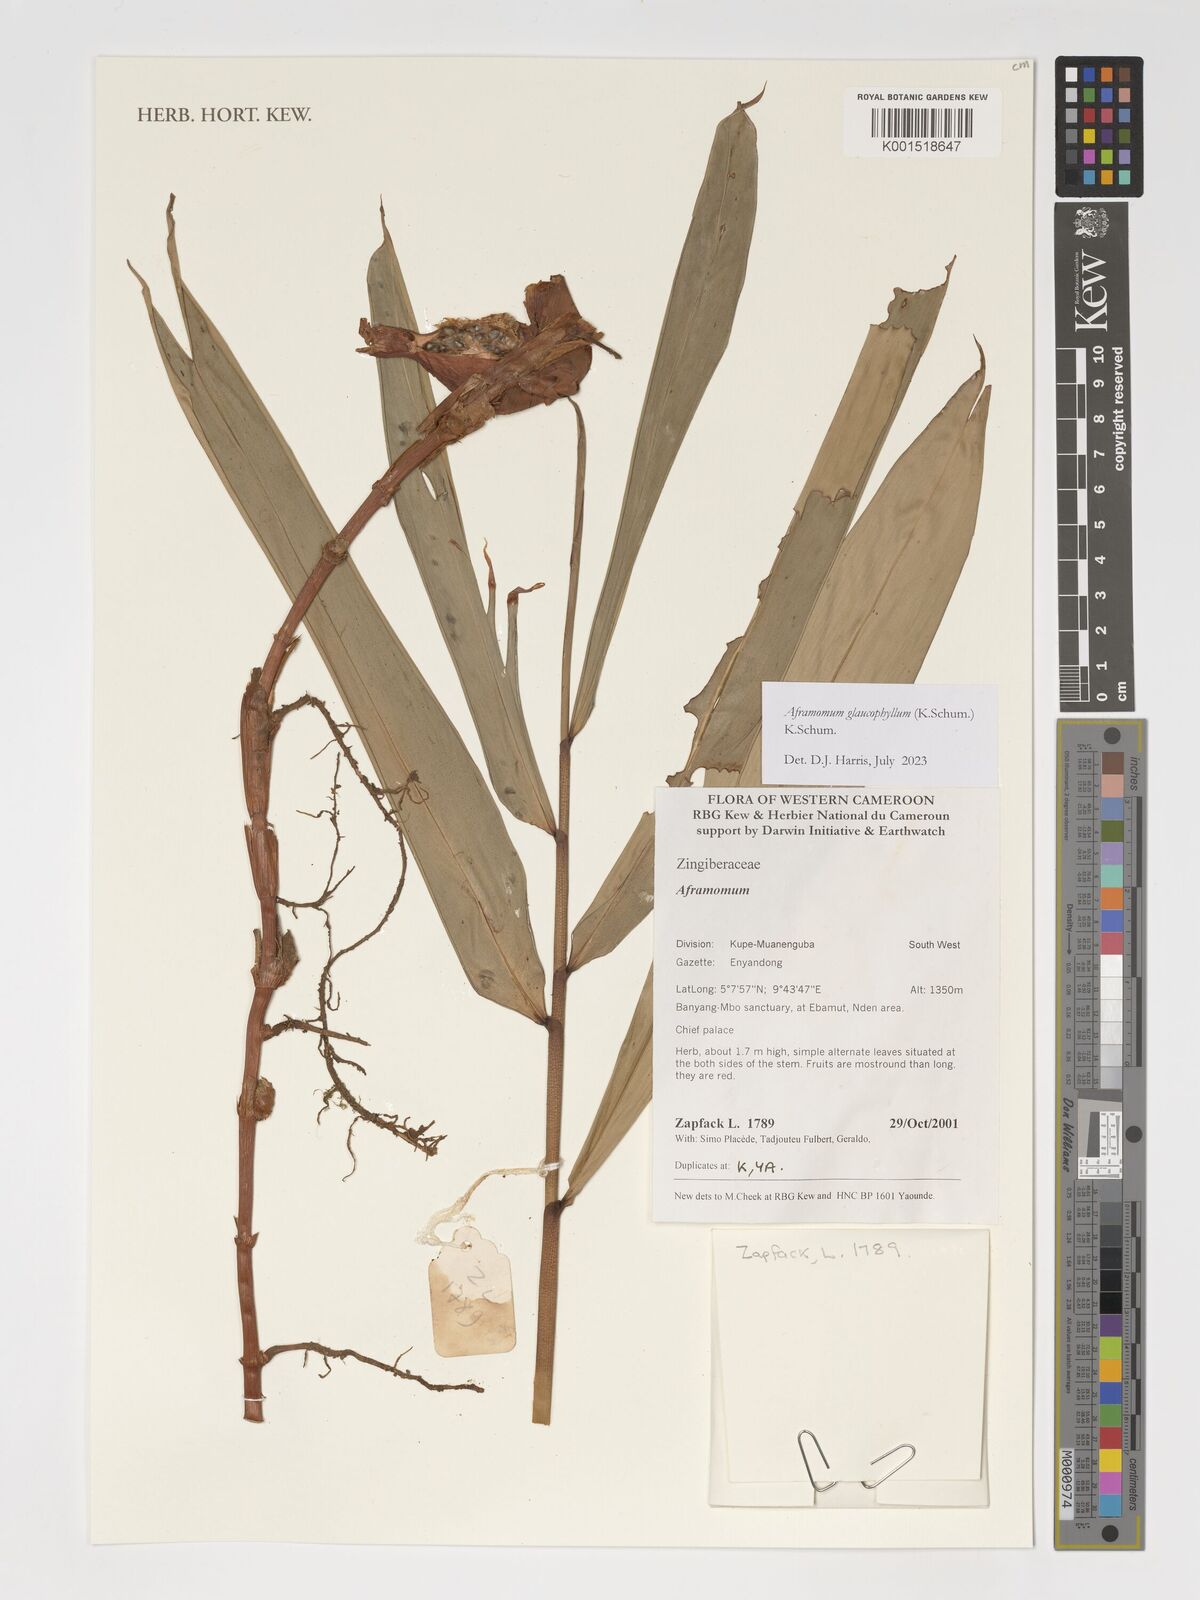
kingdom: Plantae
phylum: Tracheophyta
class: Liliopsida
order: Zingiberales
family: Zingiberaceae
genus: Aframomum
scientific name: Aframomum glaucophyllum
